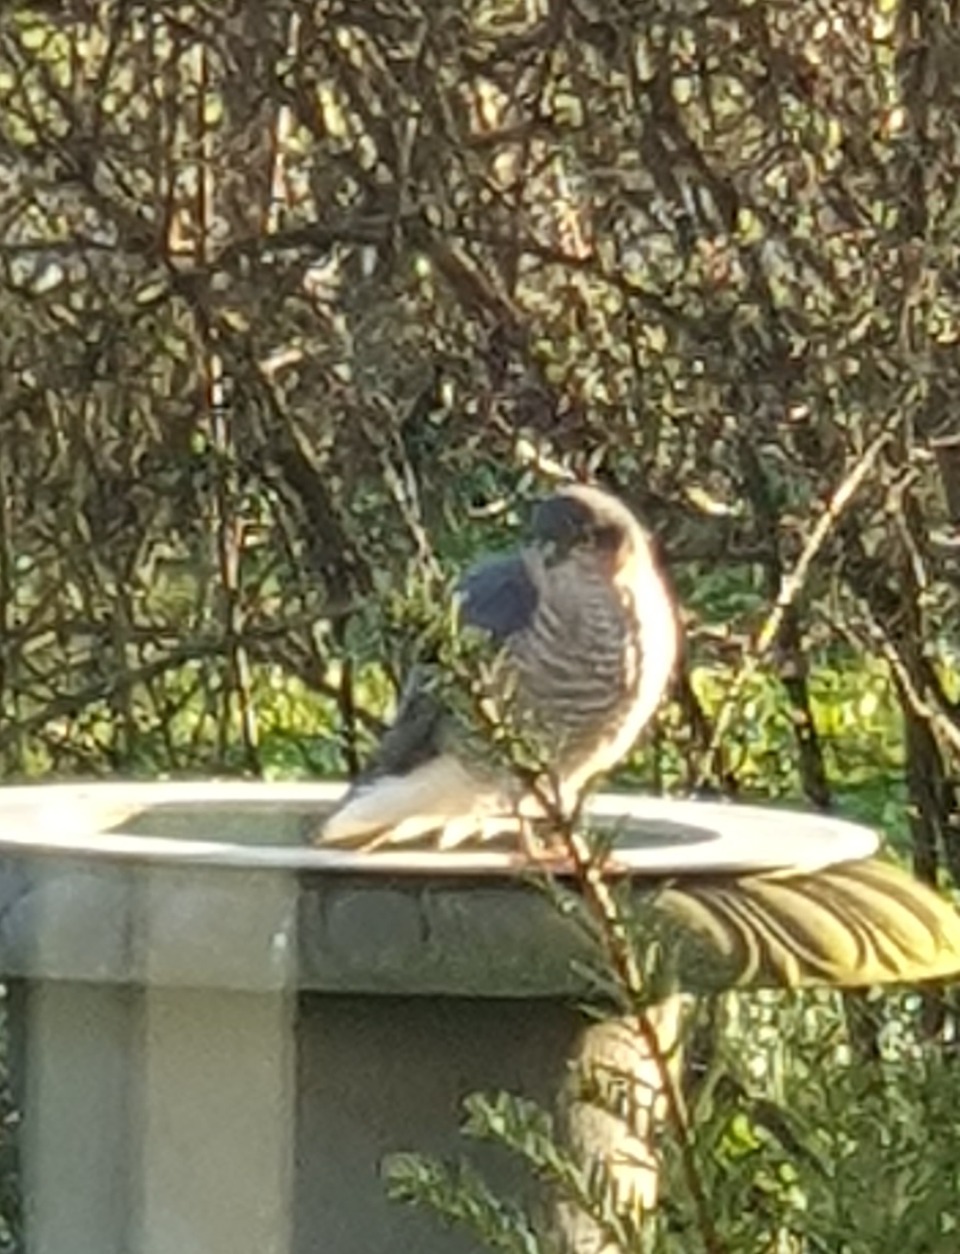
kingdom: Animalia
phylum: Chordata
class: Aves
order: Accipitriformes
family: Accipitridae
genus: Accipiter
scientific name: Accipiter nisus
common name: Spurvehøg
